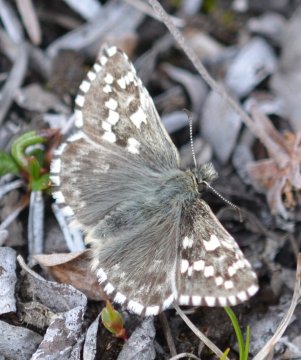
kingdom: Animalia
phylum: Arthropoda
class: Insecta
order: Lepidoptera
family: Hesperiidae
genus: Pyrgus
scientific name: Pyrgus centaureae
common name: Grizzled Skipper
